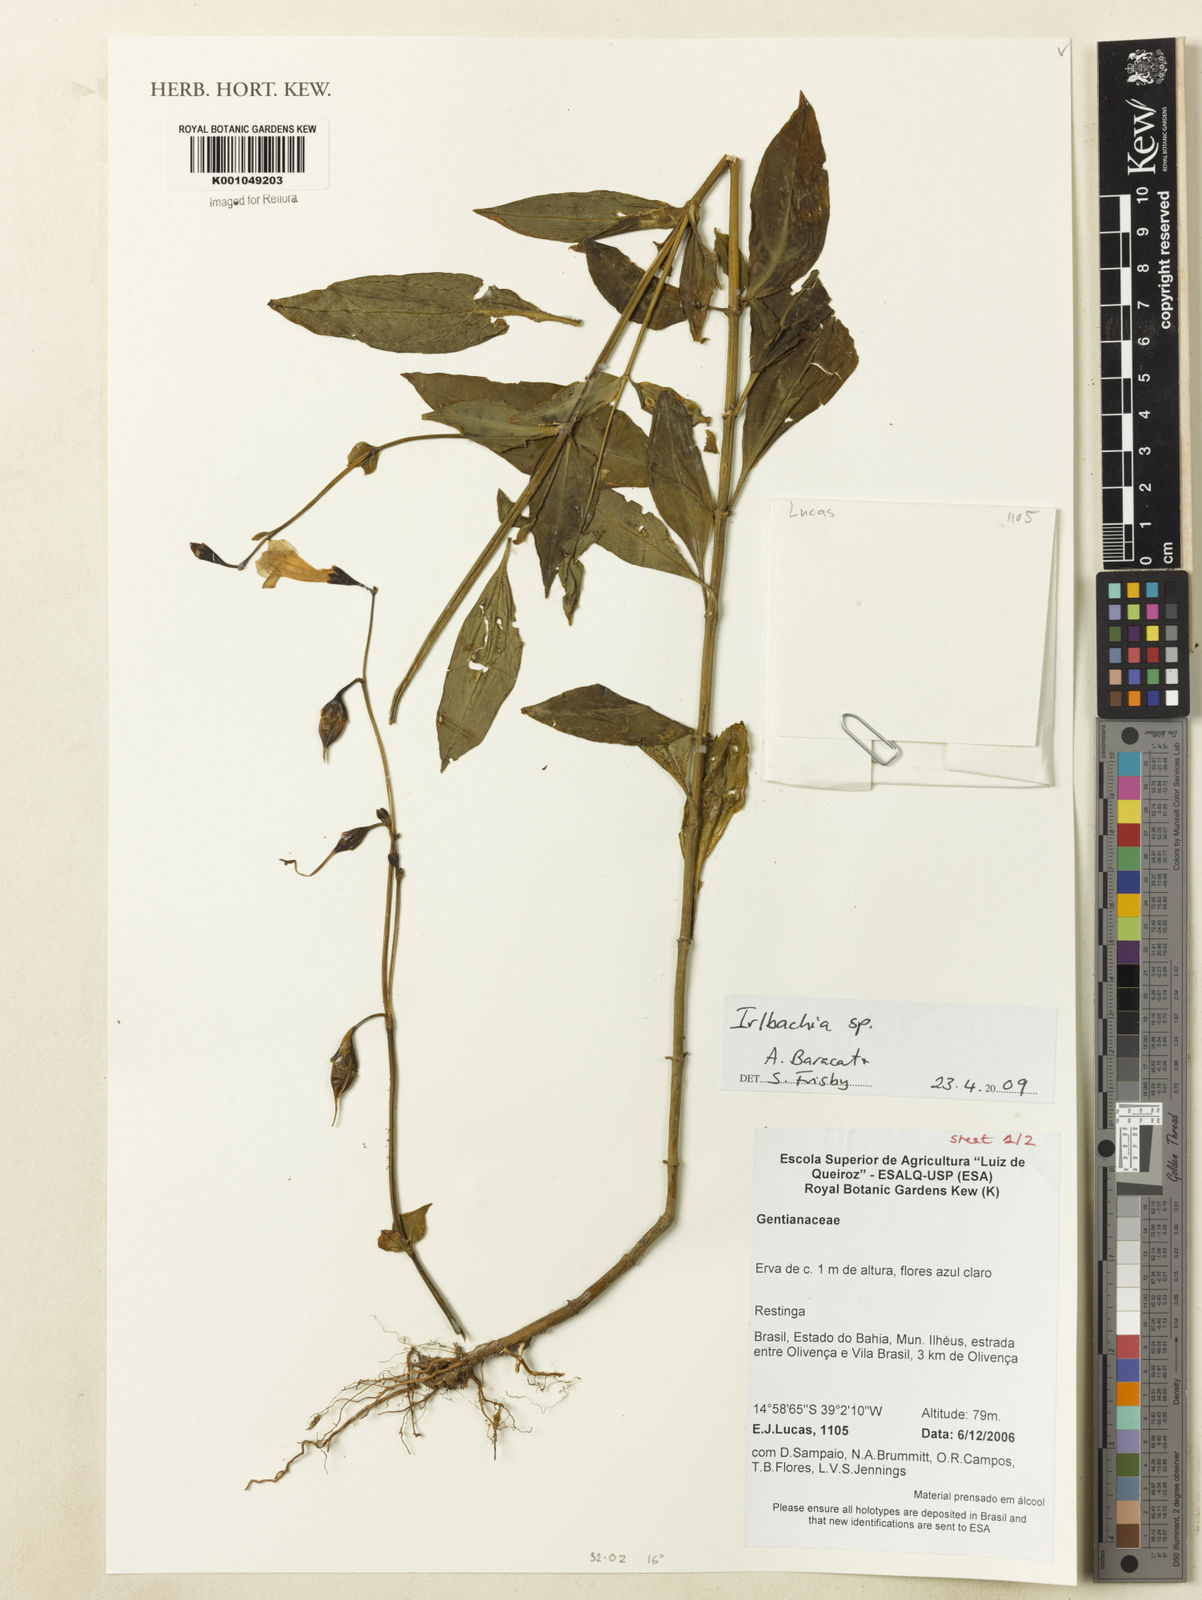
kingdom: Plantae
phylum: Tracheophyta
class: Magnoliopsida
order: Gentianales
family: Gentianaceae
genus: Irlbachia
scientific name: Irlbachia
